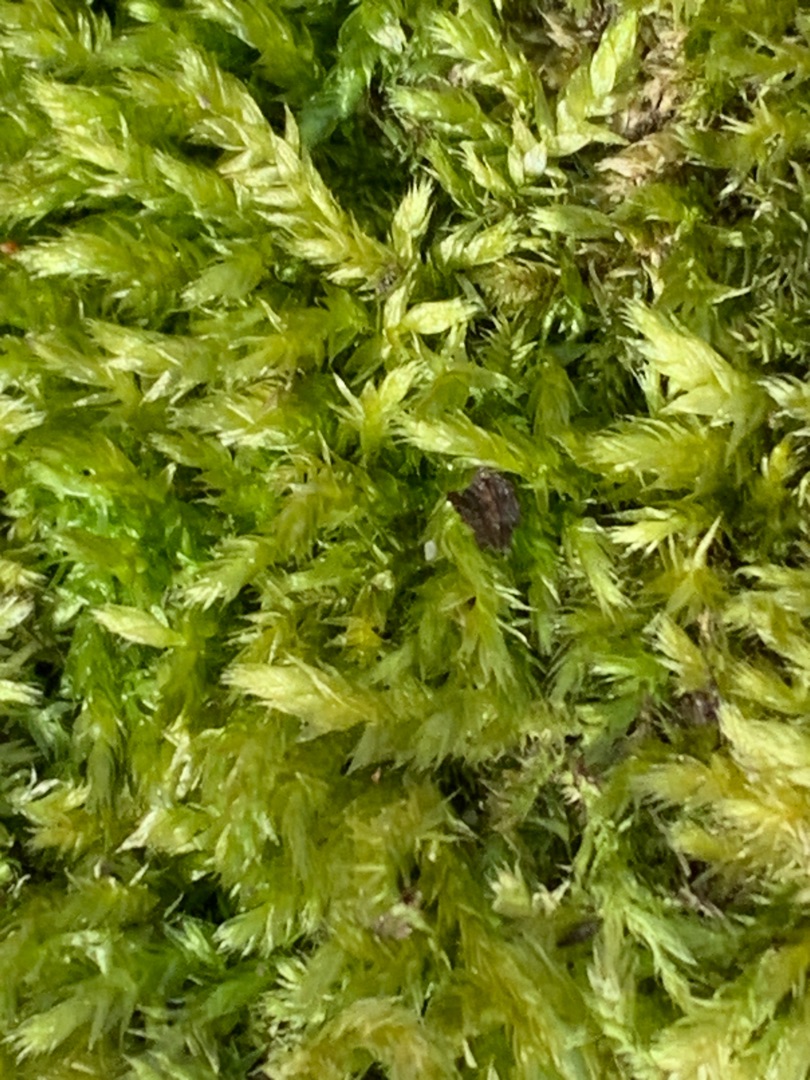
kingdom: Plantae
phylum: Bryophyta
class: Bryopsida
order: Hypnales
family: Brachytheciaceae
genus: Brachythecium
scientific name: Brachythecium rutabulum
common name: Almindelig kortkapsel
